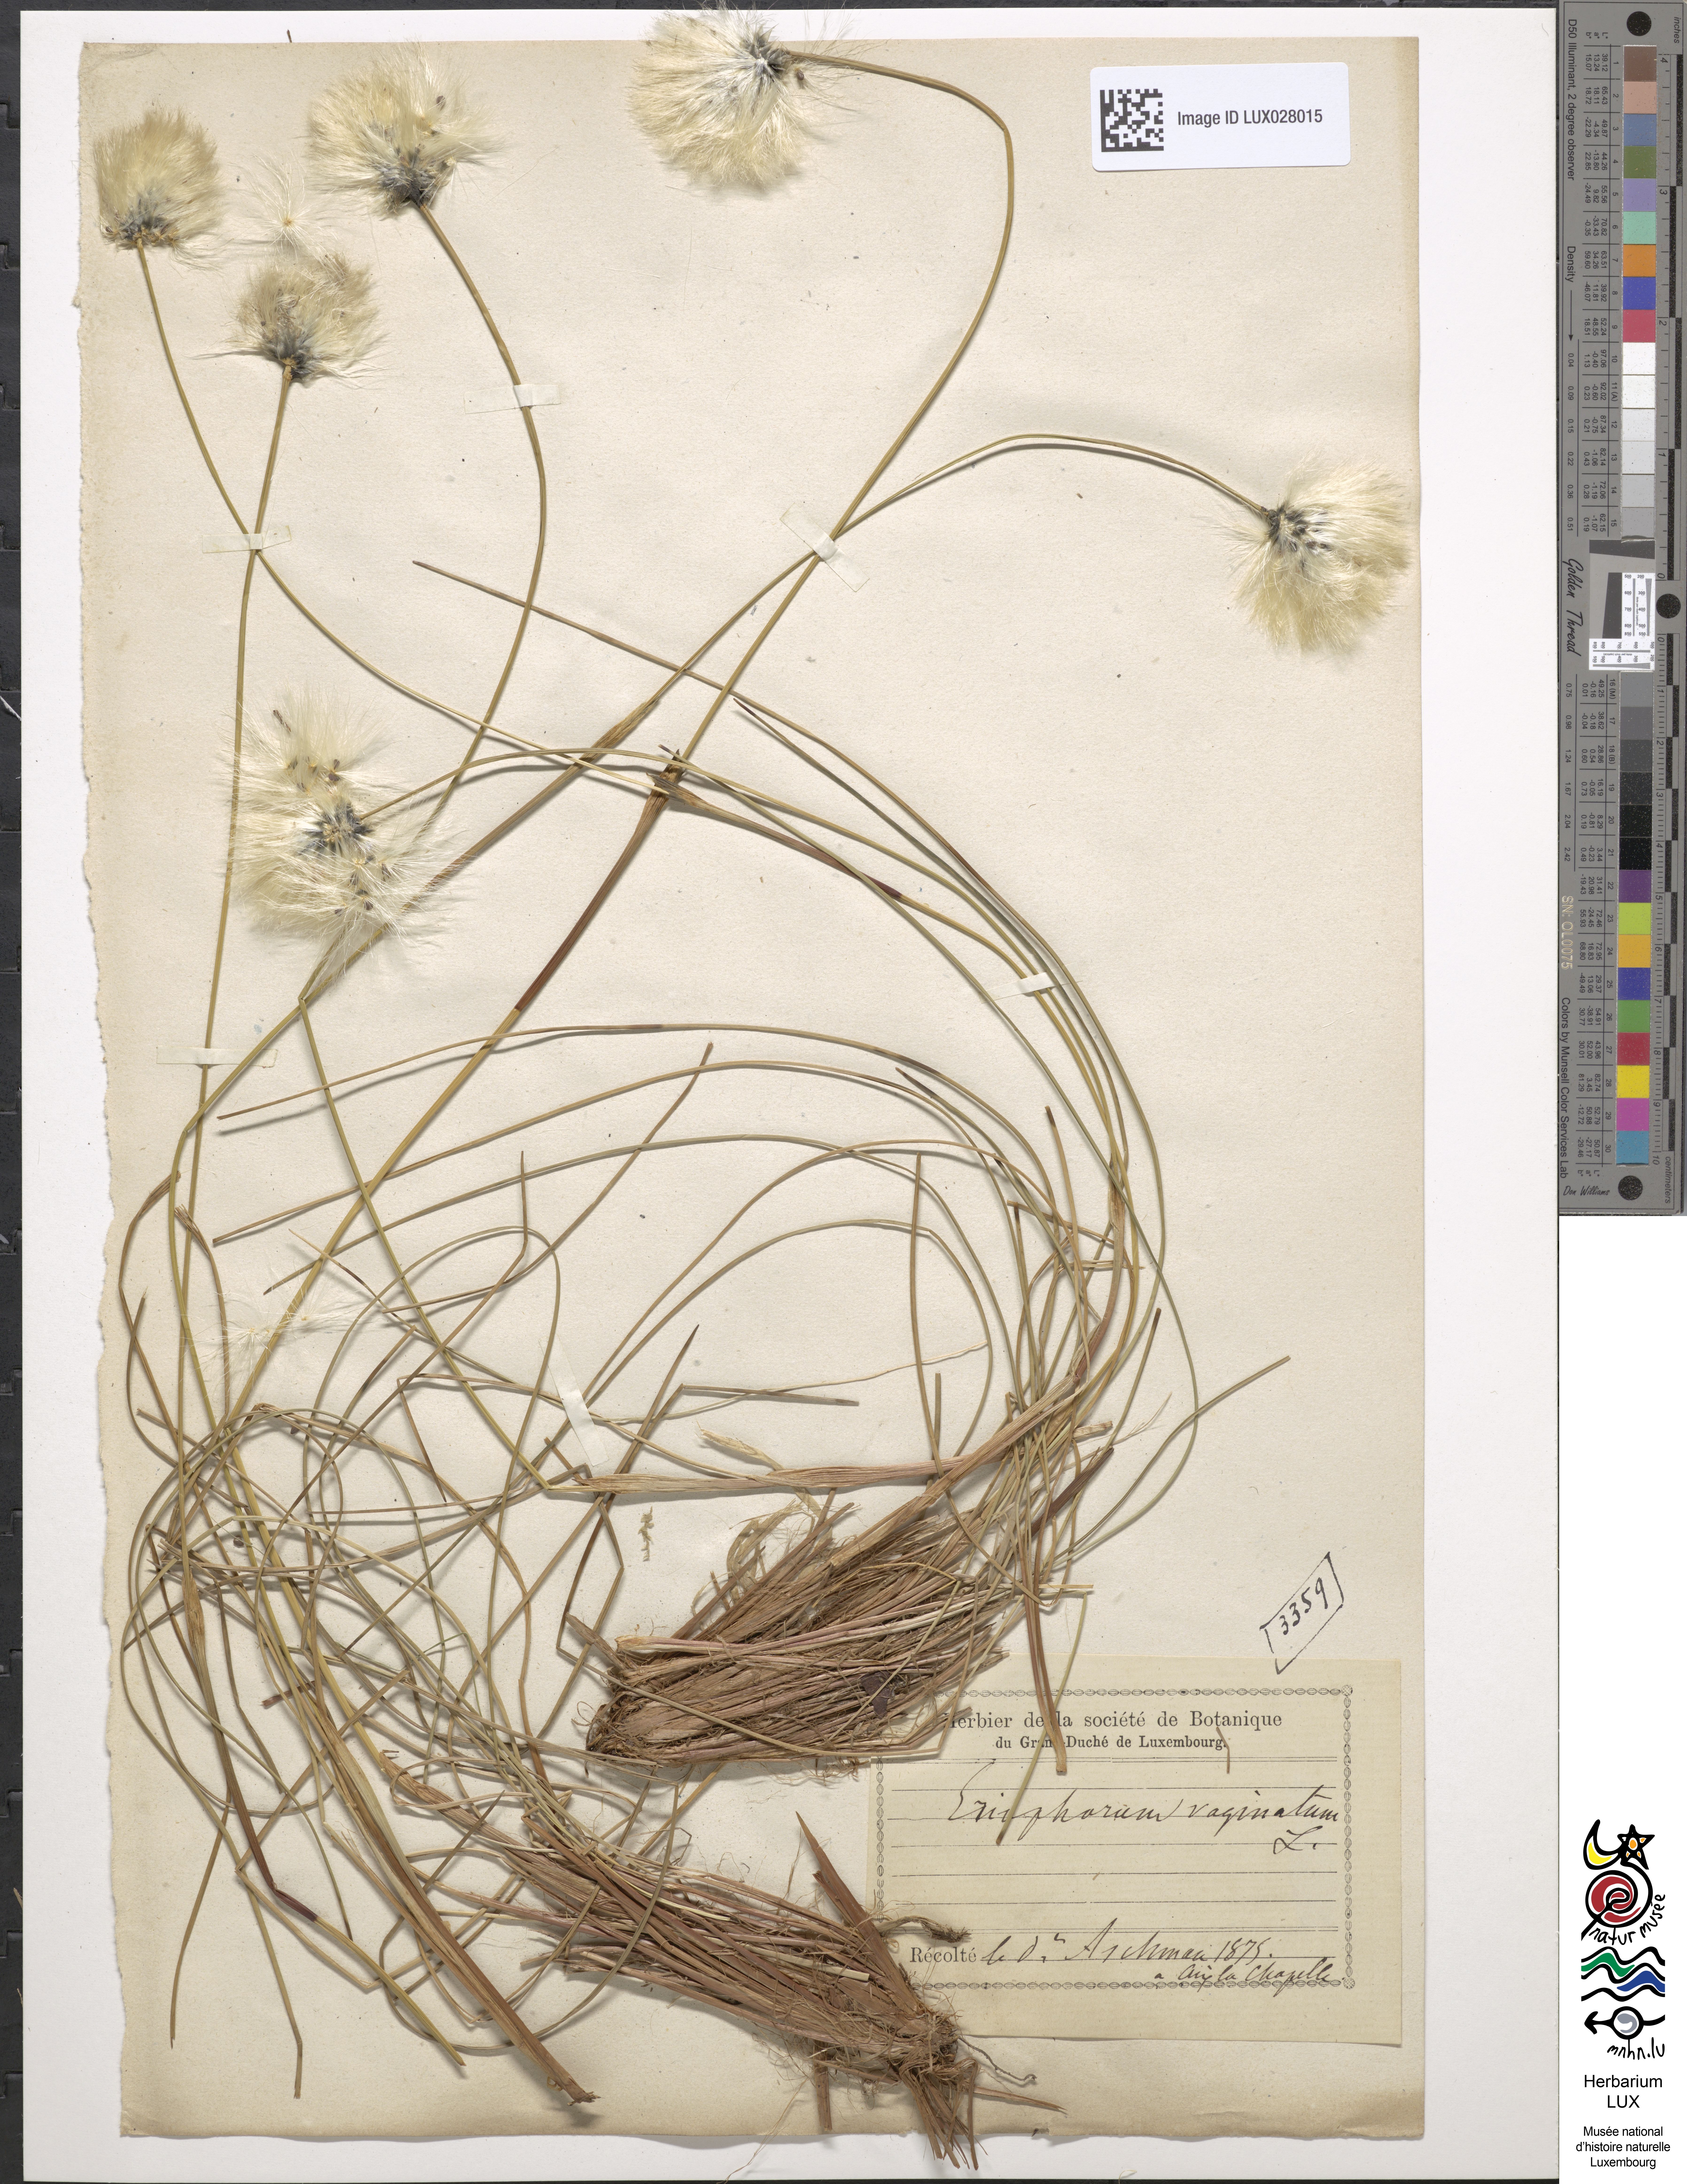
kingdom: Plantae
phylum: Tracheophyta
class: Liliopsida
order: Poales
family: Cyperaceae
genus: Eriophorum
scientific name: Eriophorum vaginatum
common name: Hare's-tail cottongrass
